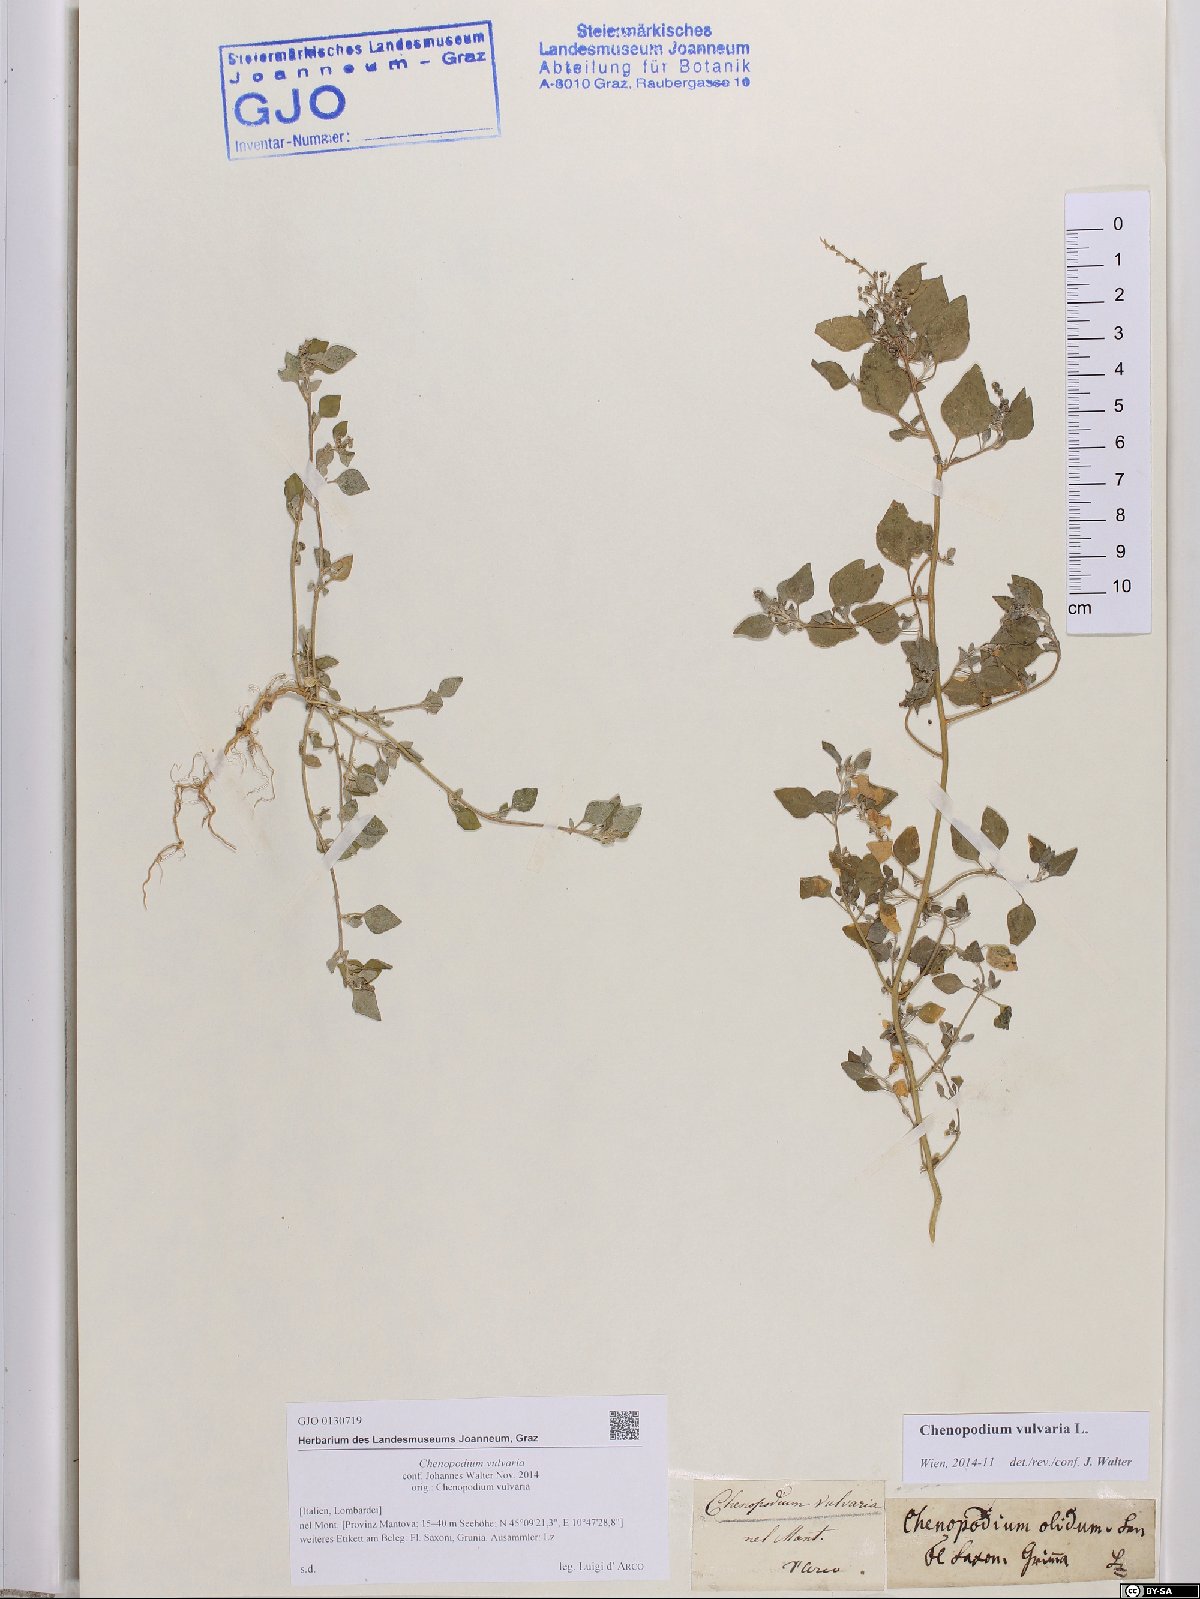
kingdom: Plantae
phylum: Tracheophyta
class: Magnoliopsida
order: Caryophyllales
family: Amaranthaceae
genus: Chenopodium
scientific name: Chenopodium vulvaria
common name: Stinking goosefoot
